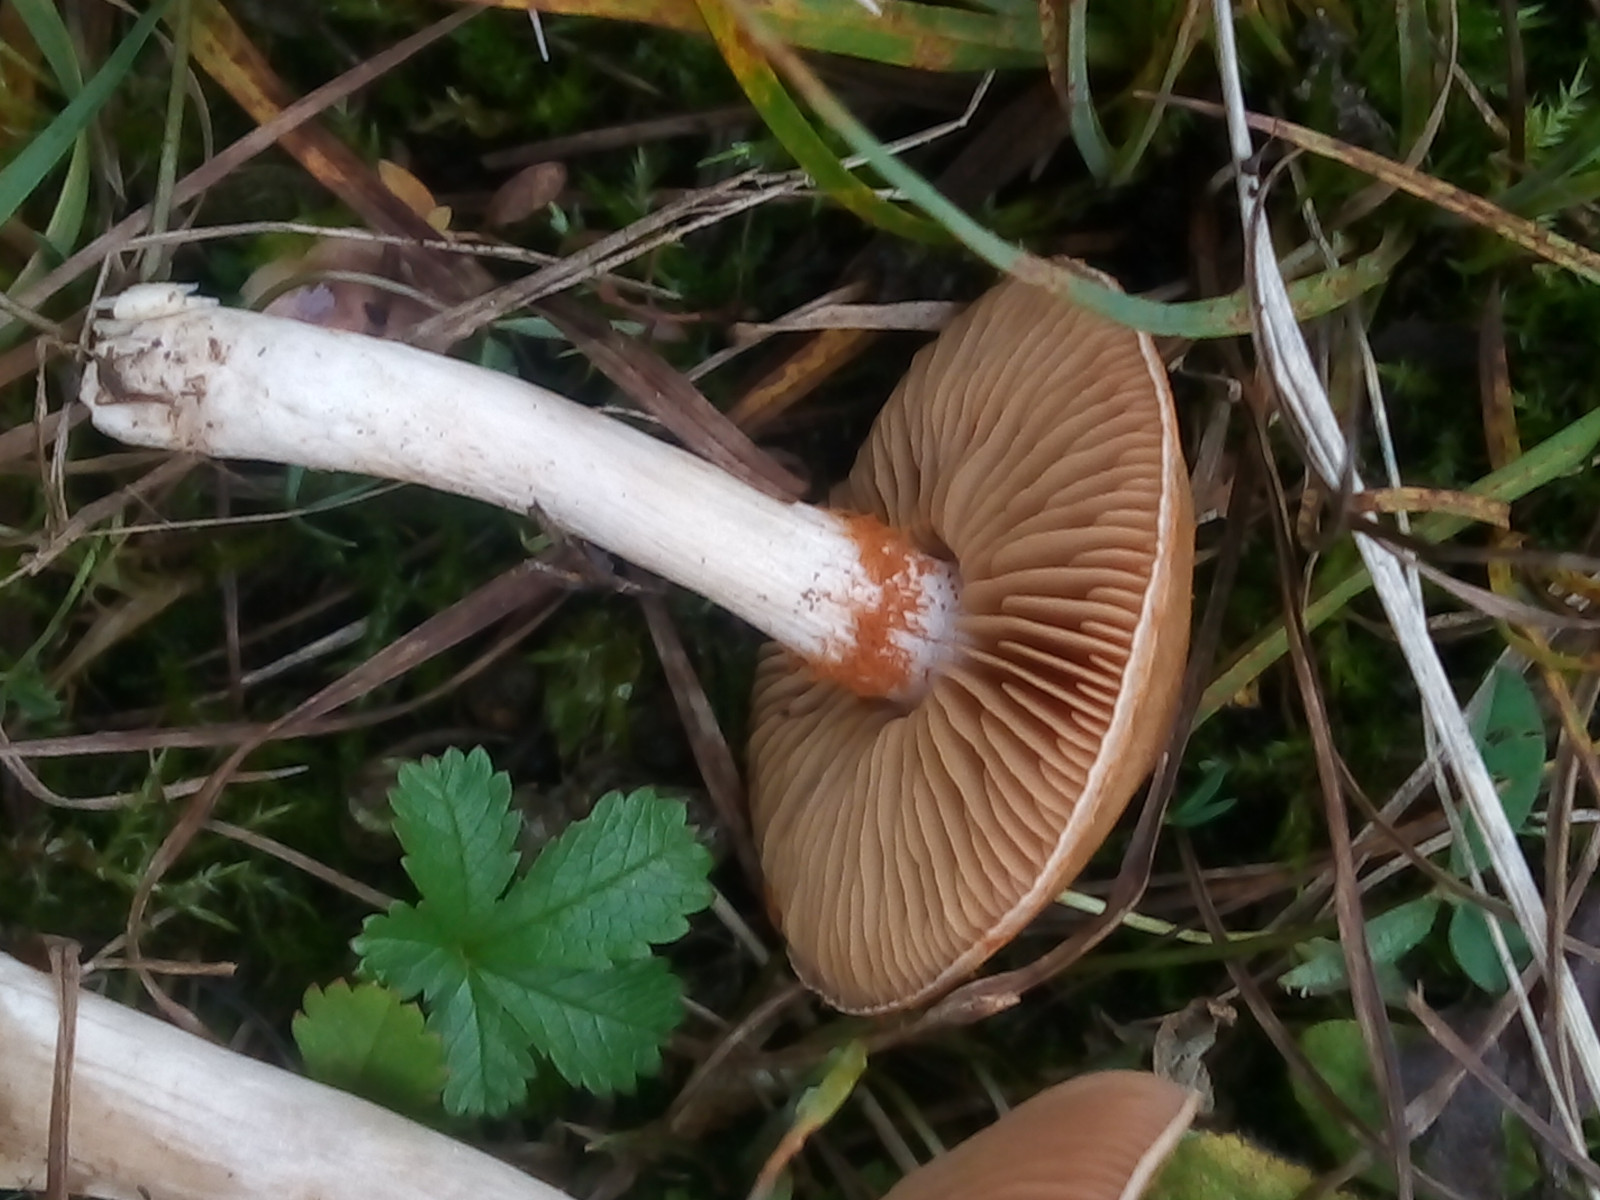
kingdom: Fungi
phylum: Basidiomycota
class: Agaricomycetes
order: Agaricales
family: Cortinariaceae
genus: Cortinarius
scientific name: Cortinarius albocyaneus
